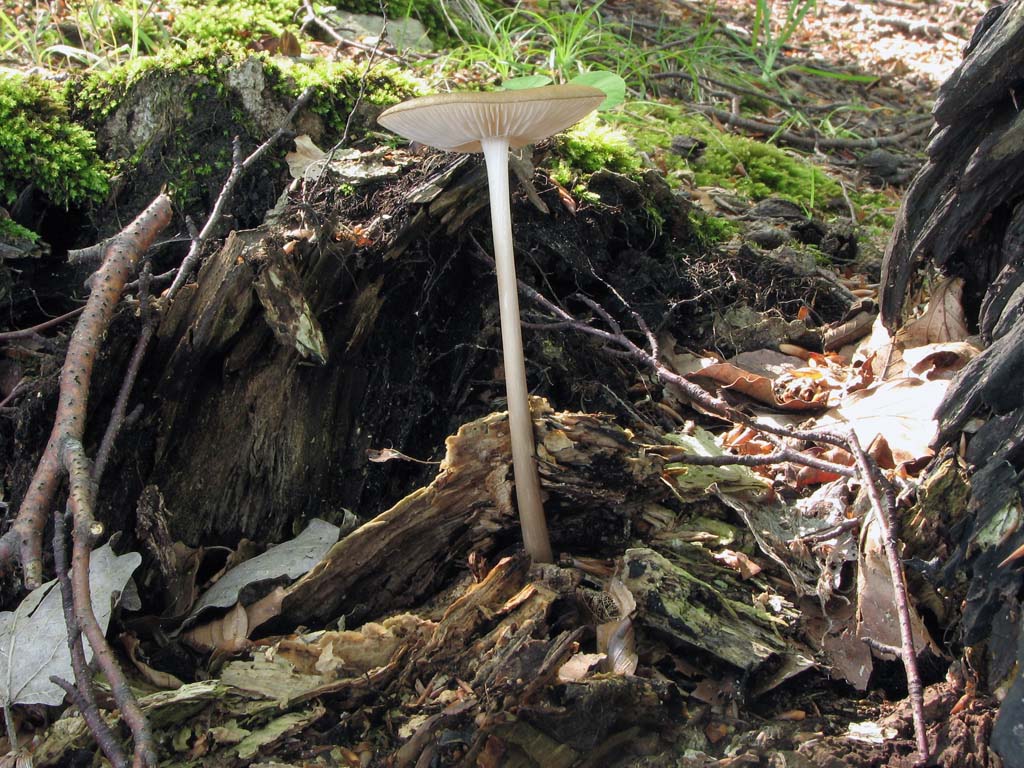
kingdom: Fungi
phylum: Basidiomycota
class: Agaricomycetes
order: Agaricales
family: Physalacriaceae
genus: Hymenopellis
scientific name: Hymenopellis radicata
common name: almindelig pælerodshat
